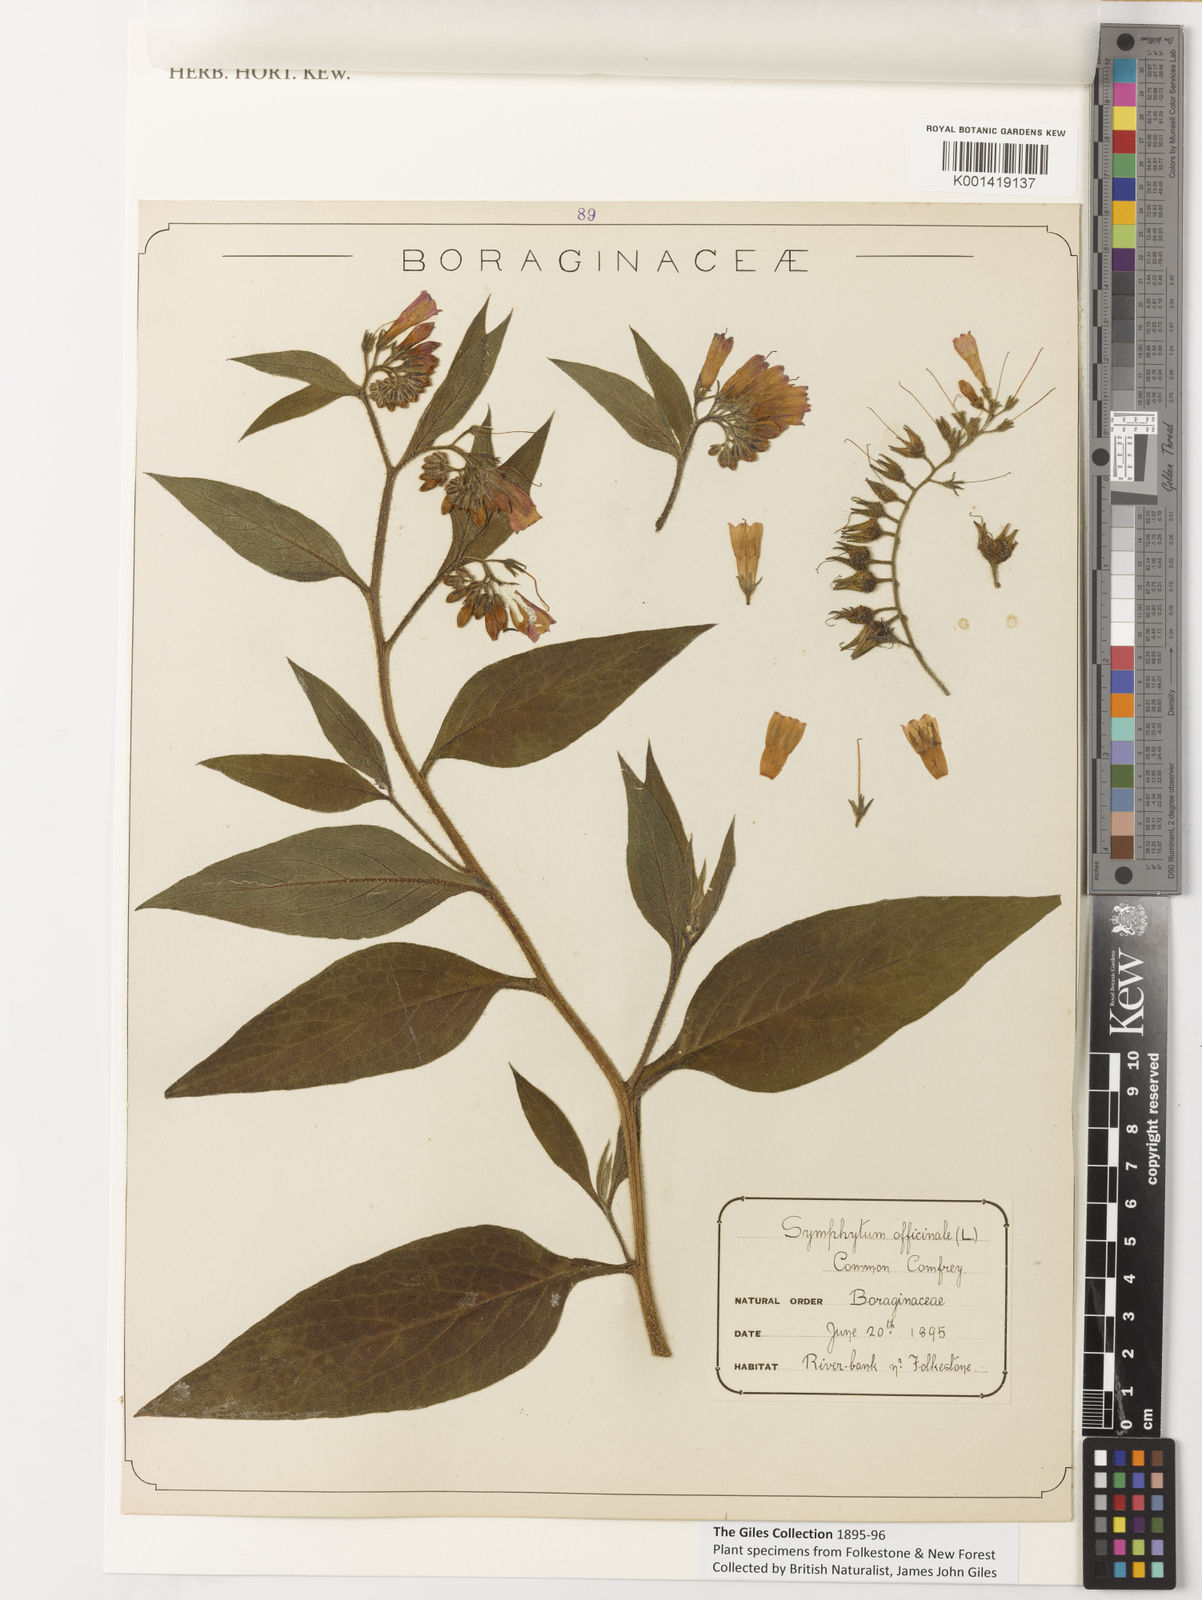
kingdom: Plantae
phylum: Tracheophyta
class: Magnoliopsida
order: Boraginales
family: Boraginaceae
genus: Symphytum
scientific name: Symphytum officinale
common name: Common comfrey
